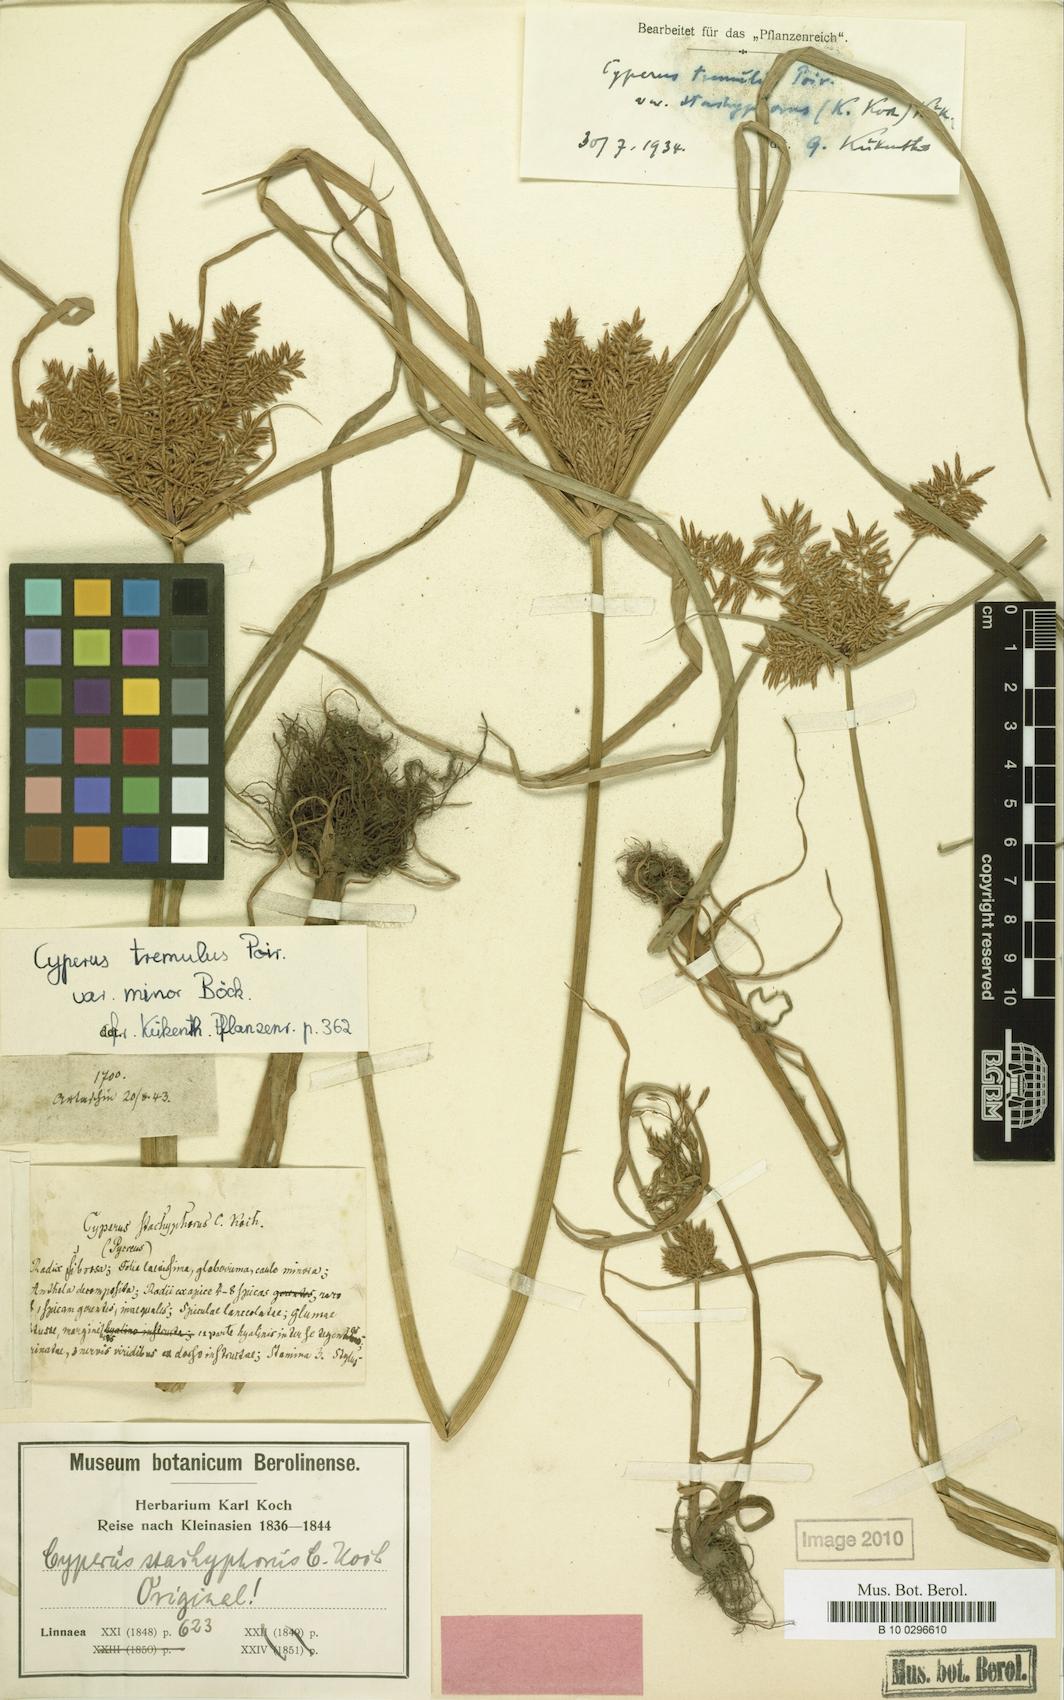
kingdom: Plantae
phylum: Tracheophyta
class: Liliopsida
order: Poales
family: Cyperaceae
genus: Cyperus
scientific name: Cyperus macrostachyos
